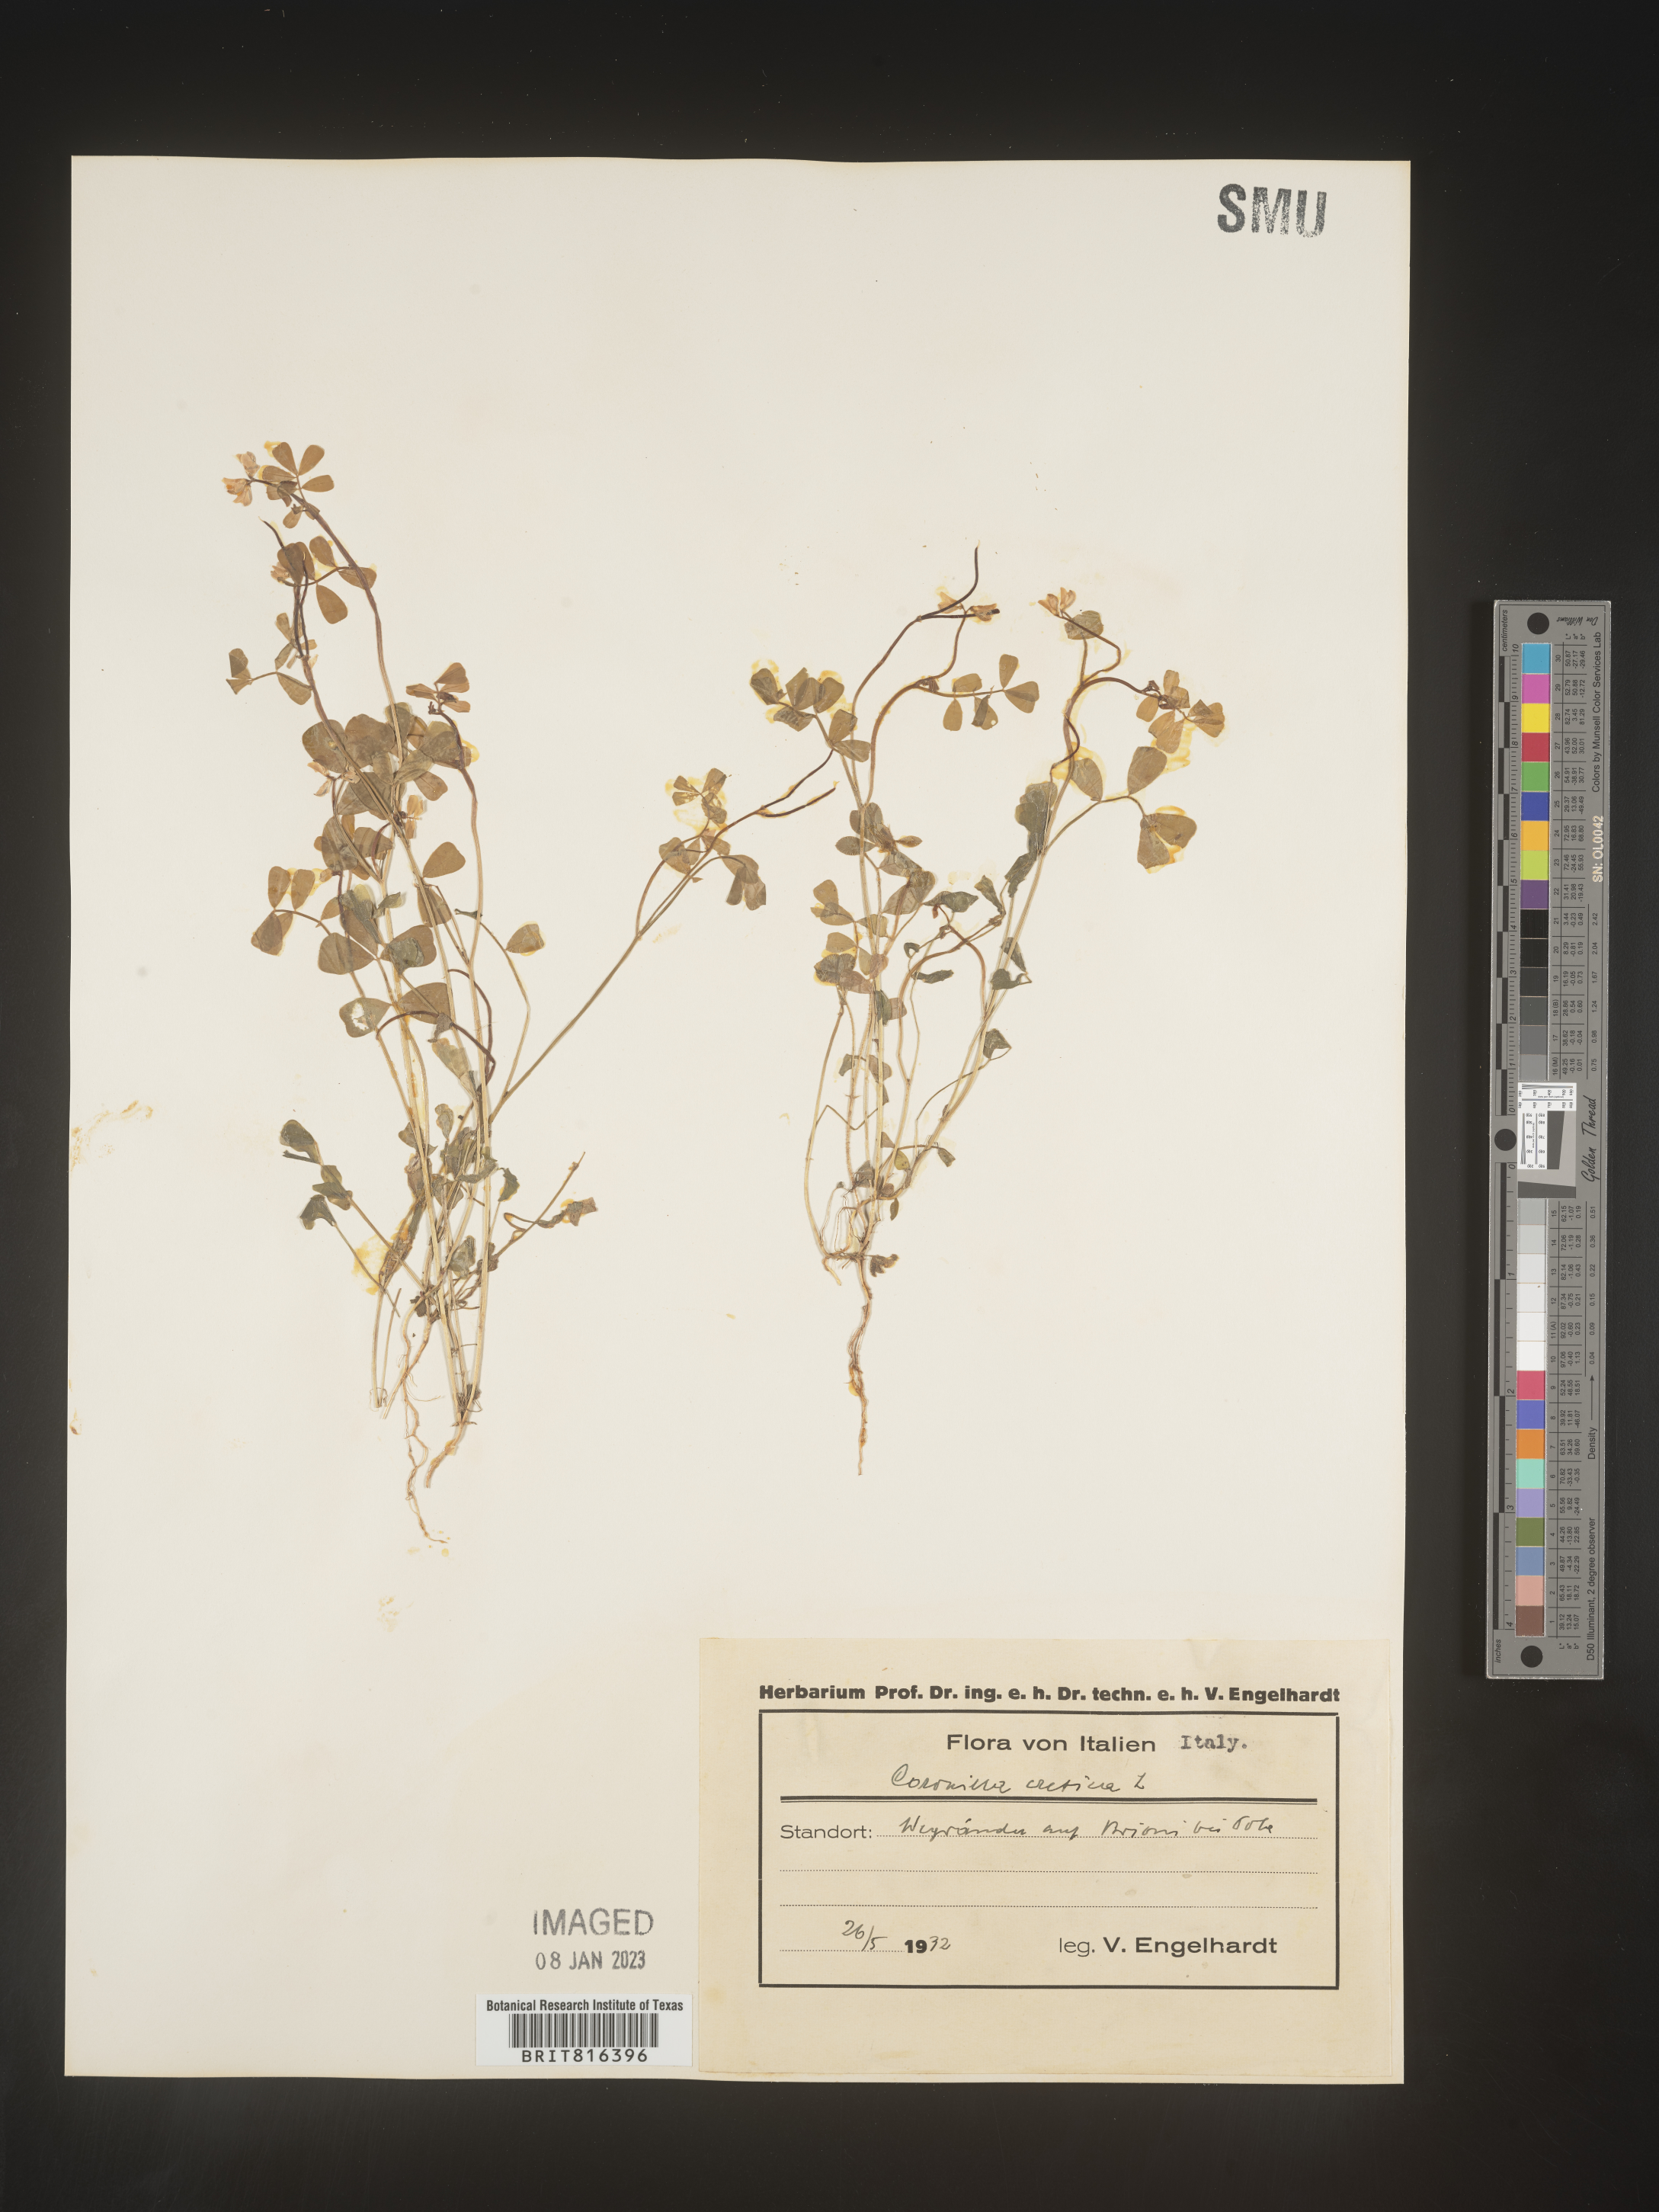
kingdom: Plantae
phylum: Tracheophyta
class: Magnoliopsida
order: Fabales
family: Fabaceae
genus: Coronilla
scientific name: Coronilla
